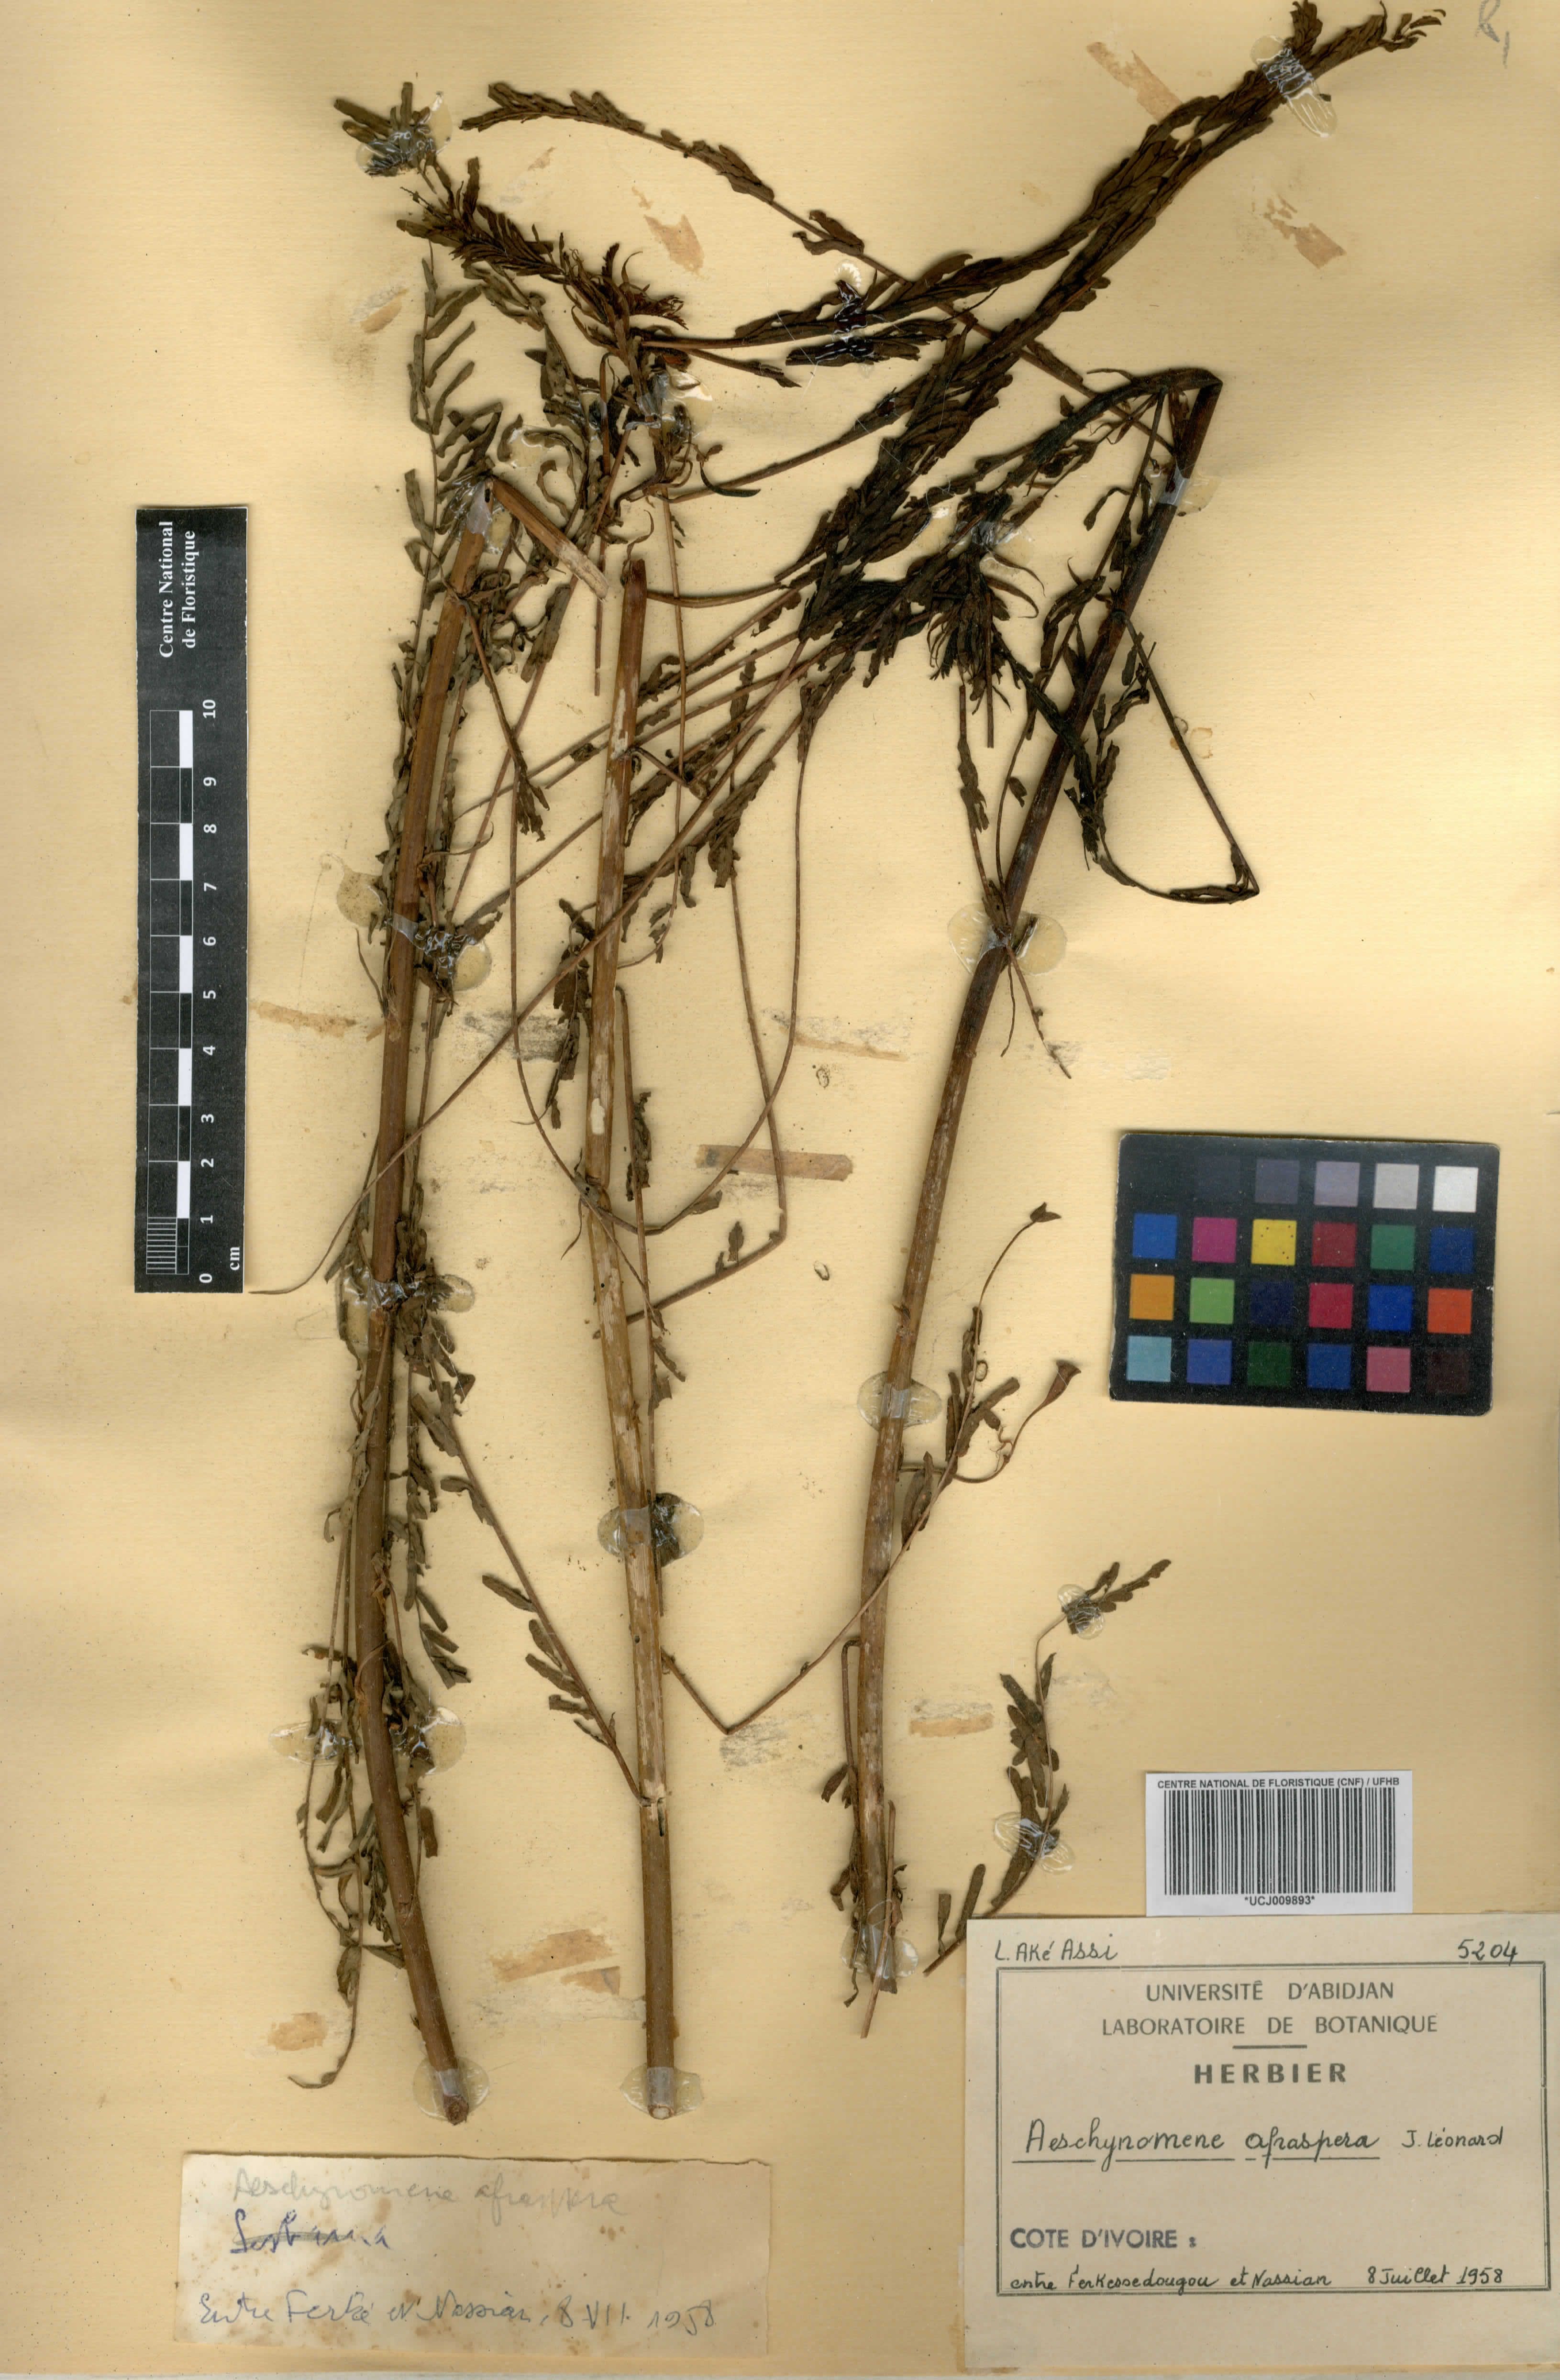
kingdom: Plantae
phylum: Tracheophyta
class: Magnoliopsida
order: Fabales
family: Fabaceae
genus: Aeschynomene
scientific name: Aeschynomene afraspera
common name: Sola pith
